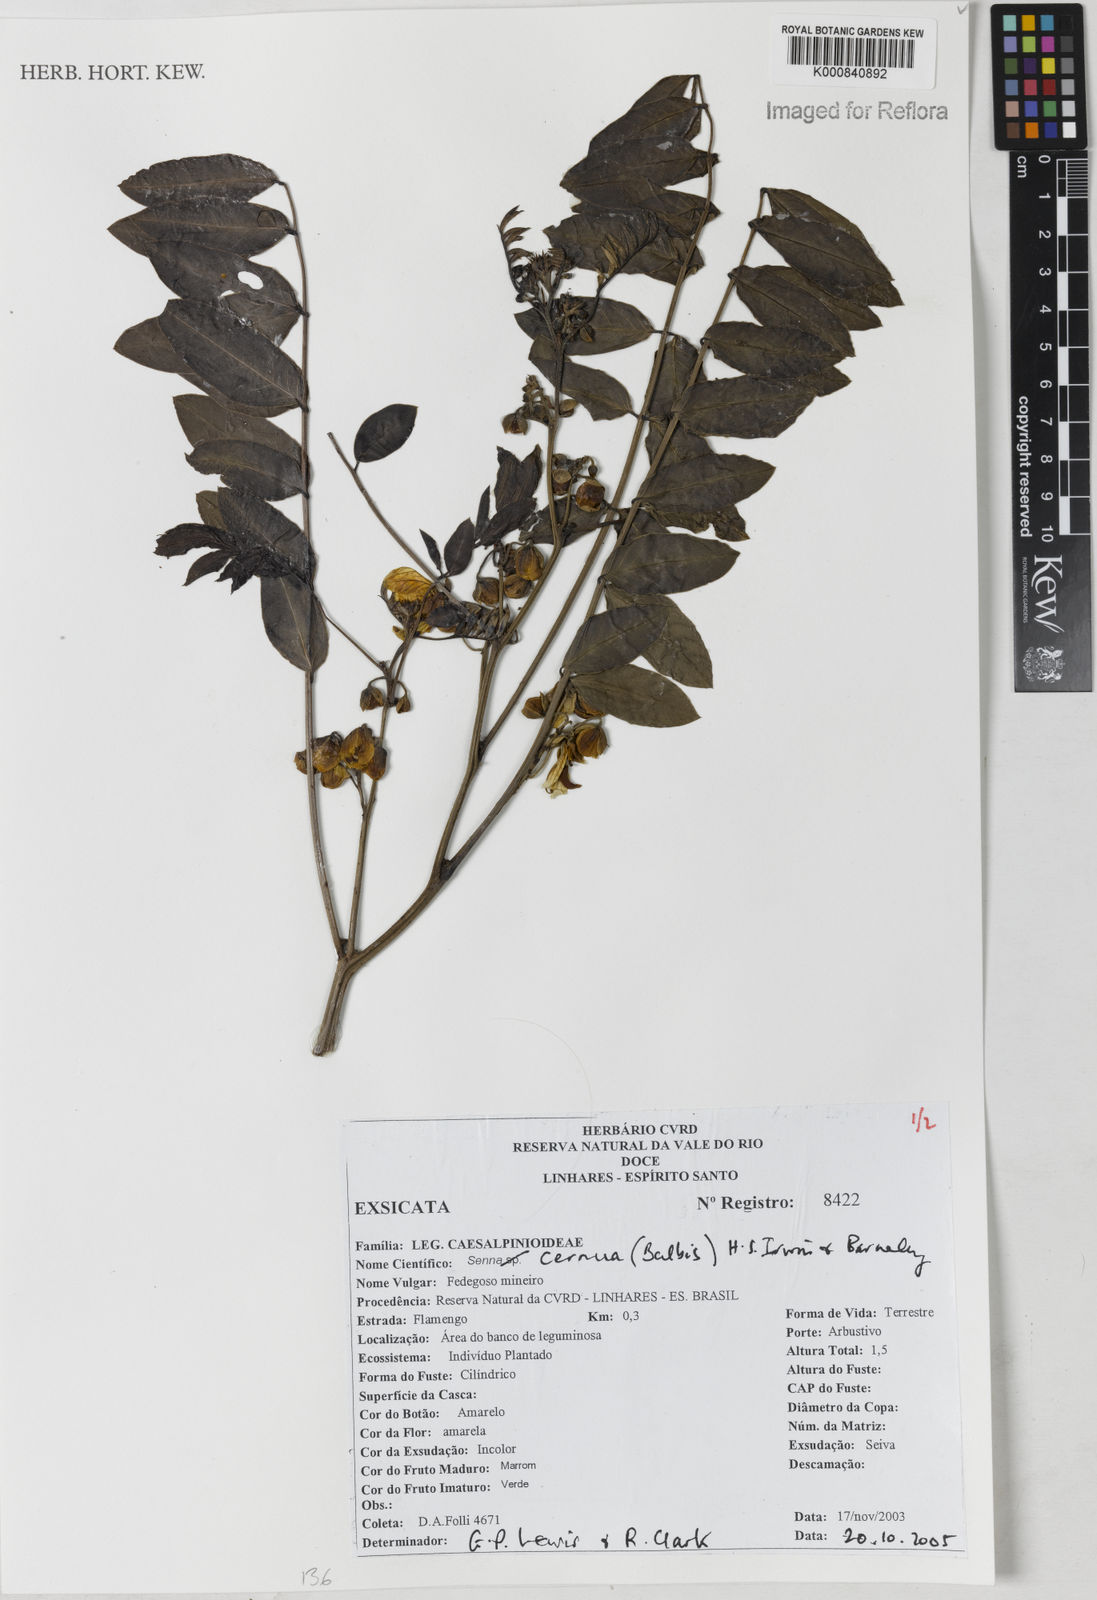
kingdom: Plantae
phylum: Tracheophyta
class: Magnoliopsida
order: Fabales
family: Fabaceae
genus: Senna
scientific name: Senna cernua
